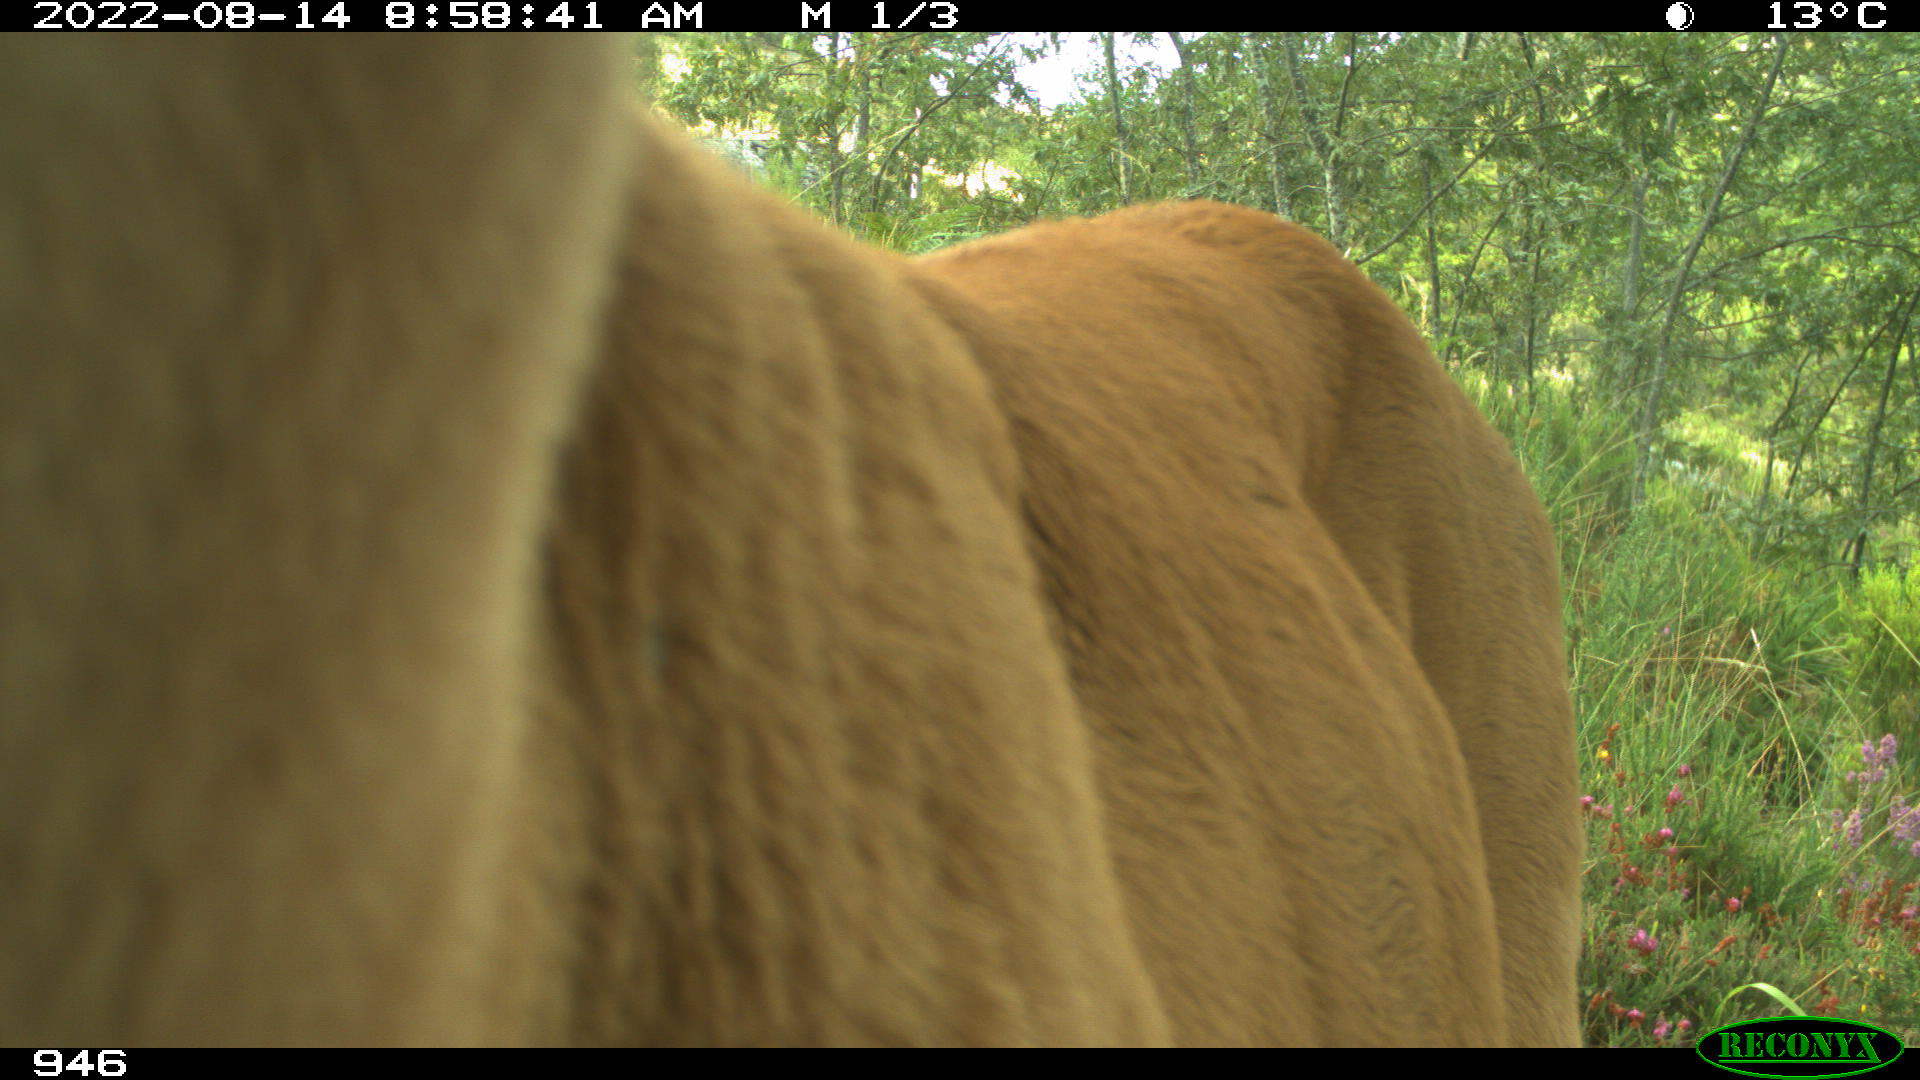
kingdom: Animalia
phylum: Chordata
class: Mammalia
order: Artiodactyla
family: Bovidae
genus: Bos
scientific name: Bos taurus
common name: Domesticated cattle
